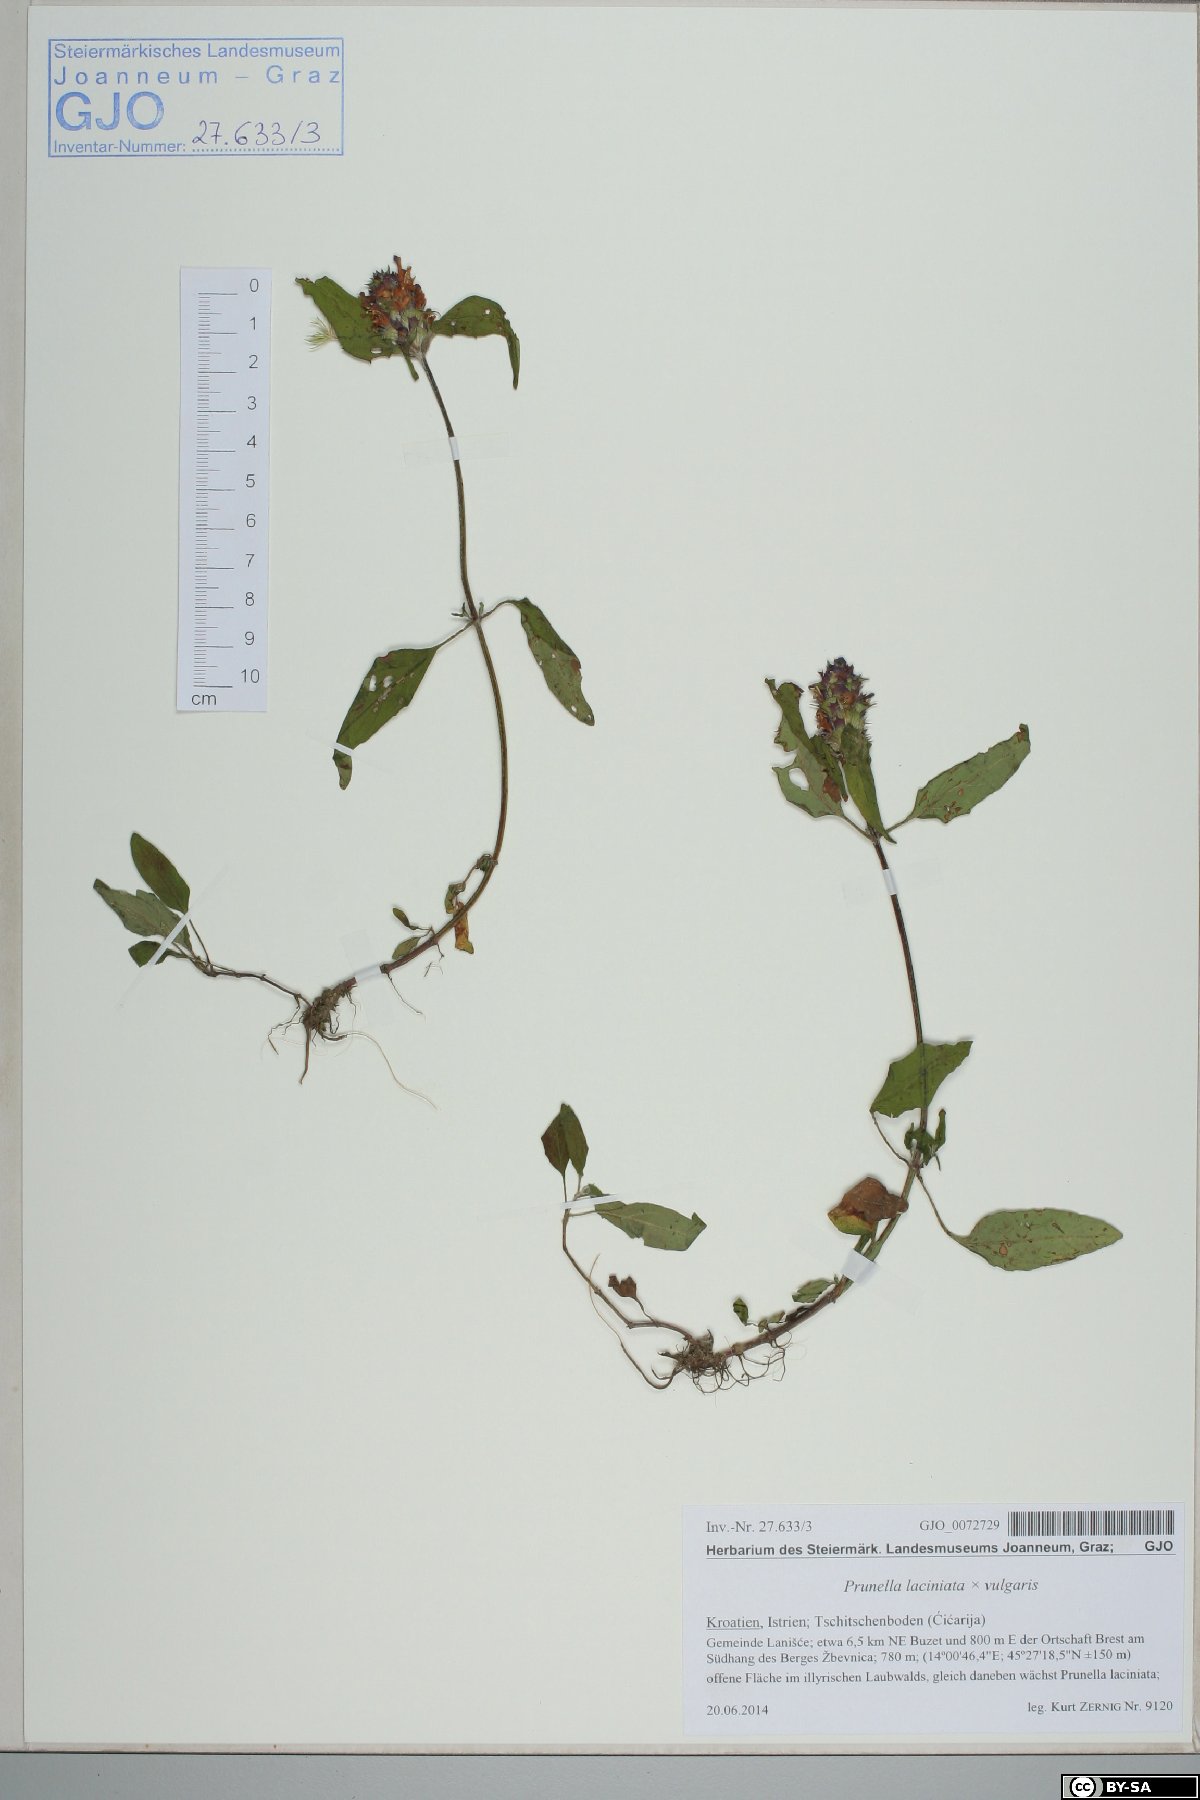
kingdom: Plantae
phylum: Tracheophyta
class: Magnoliopsida
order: Lamiales
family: Lamiaceae
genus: Prunella
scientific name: Prunella laciniata
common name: Cut-leaved selfheal
